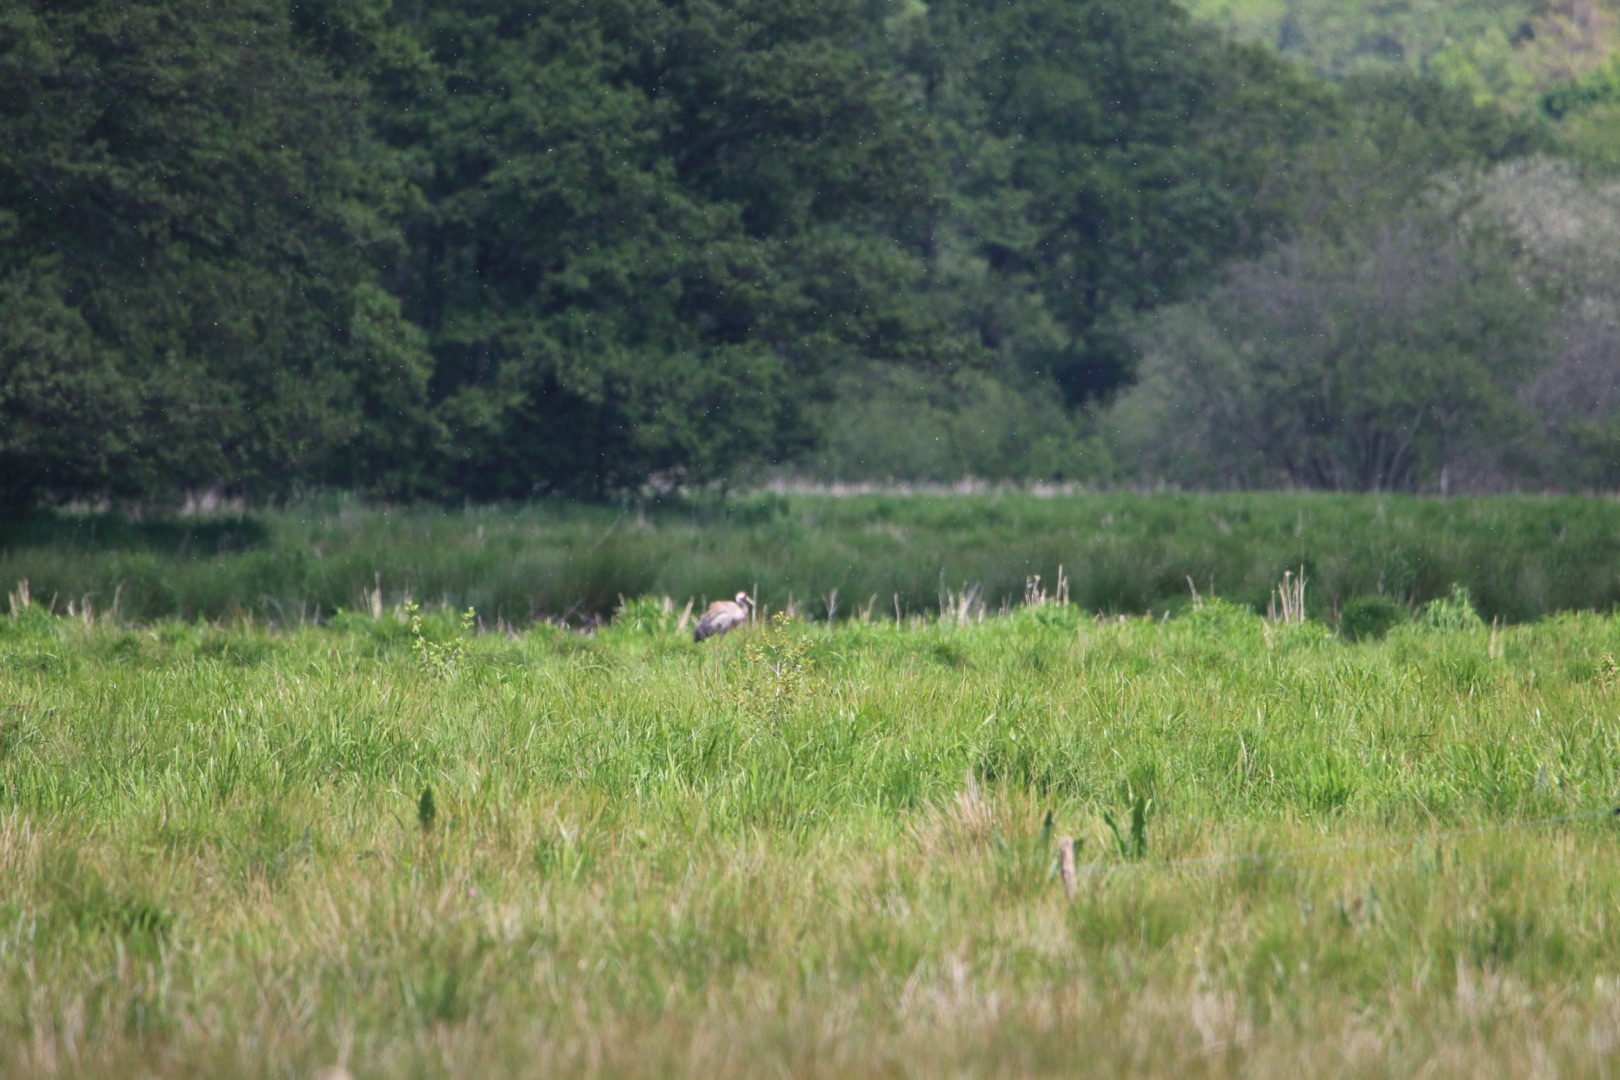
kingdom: Animalia
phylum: Chordata
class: Aves
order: Gruiformes
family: Gruidae
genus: Grus
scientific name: Grus grus
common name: Trane
